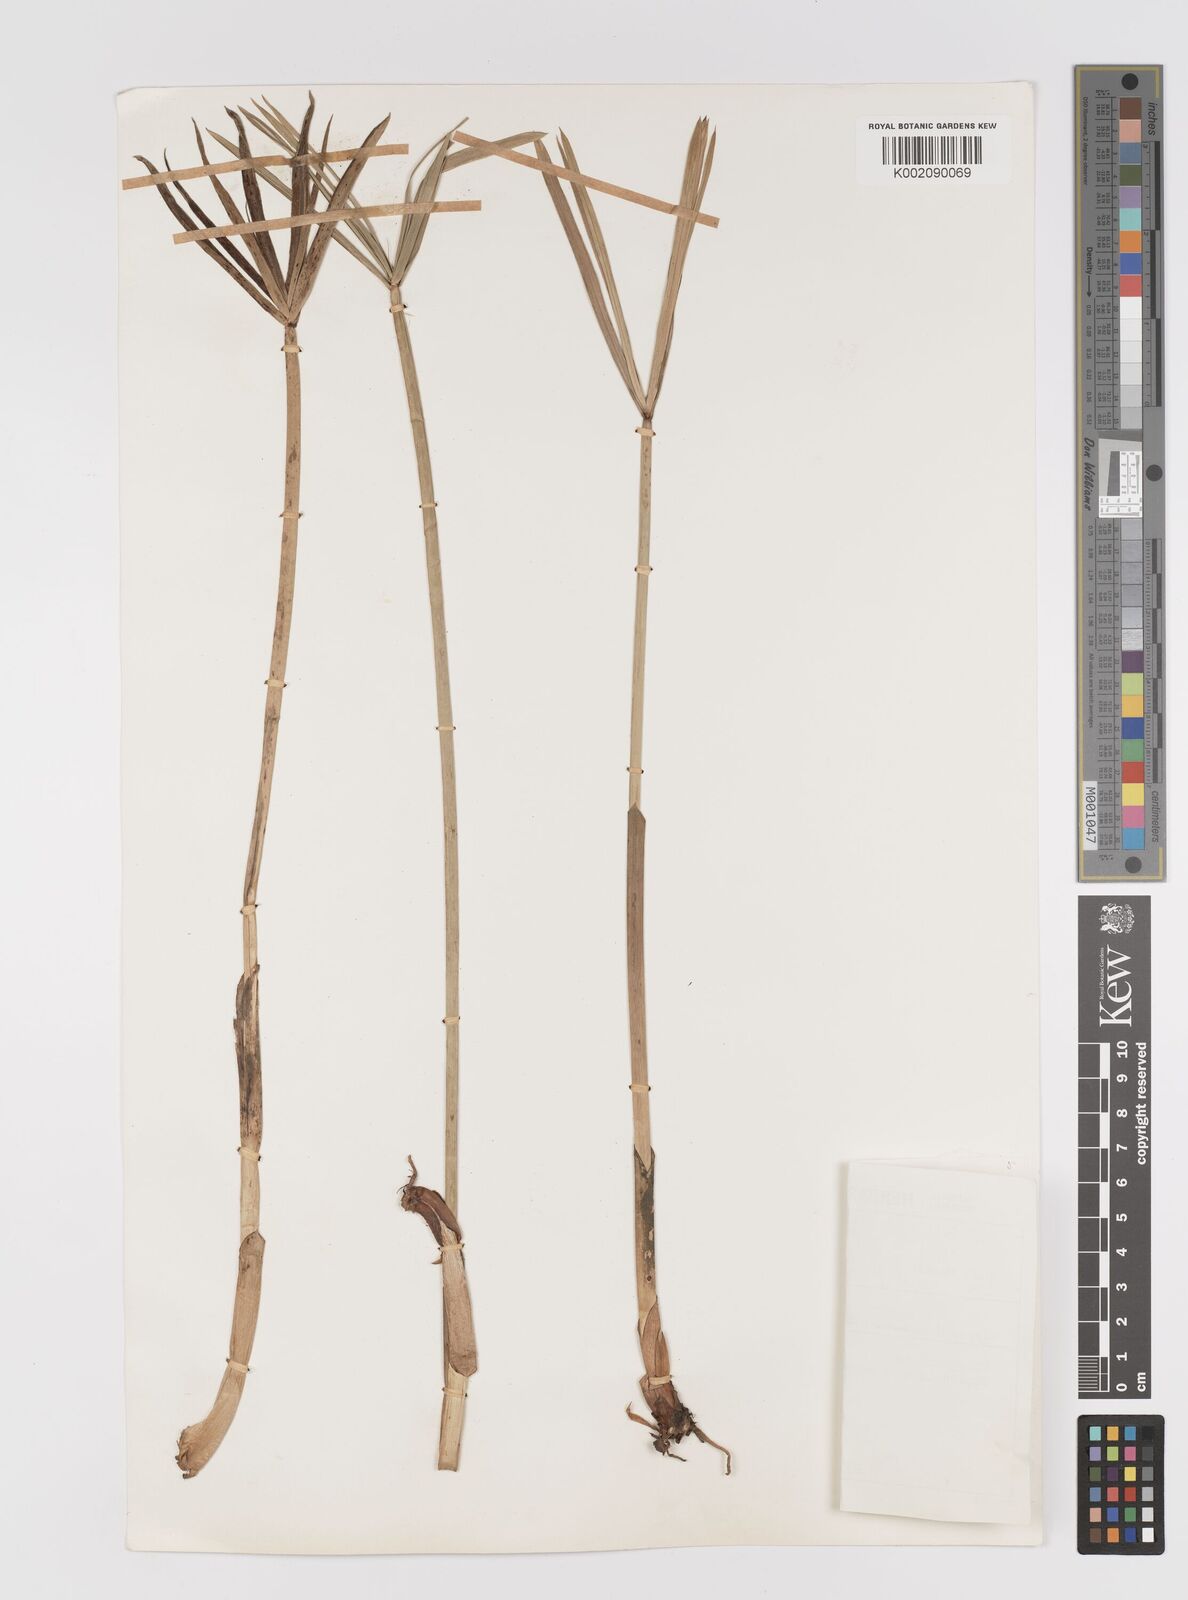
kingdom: Plantae
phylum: Tracheophyta
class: Liliopsida
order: Poales
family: Cyperaceae
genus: Cyperus
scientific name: Cyperus alternifolius
